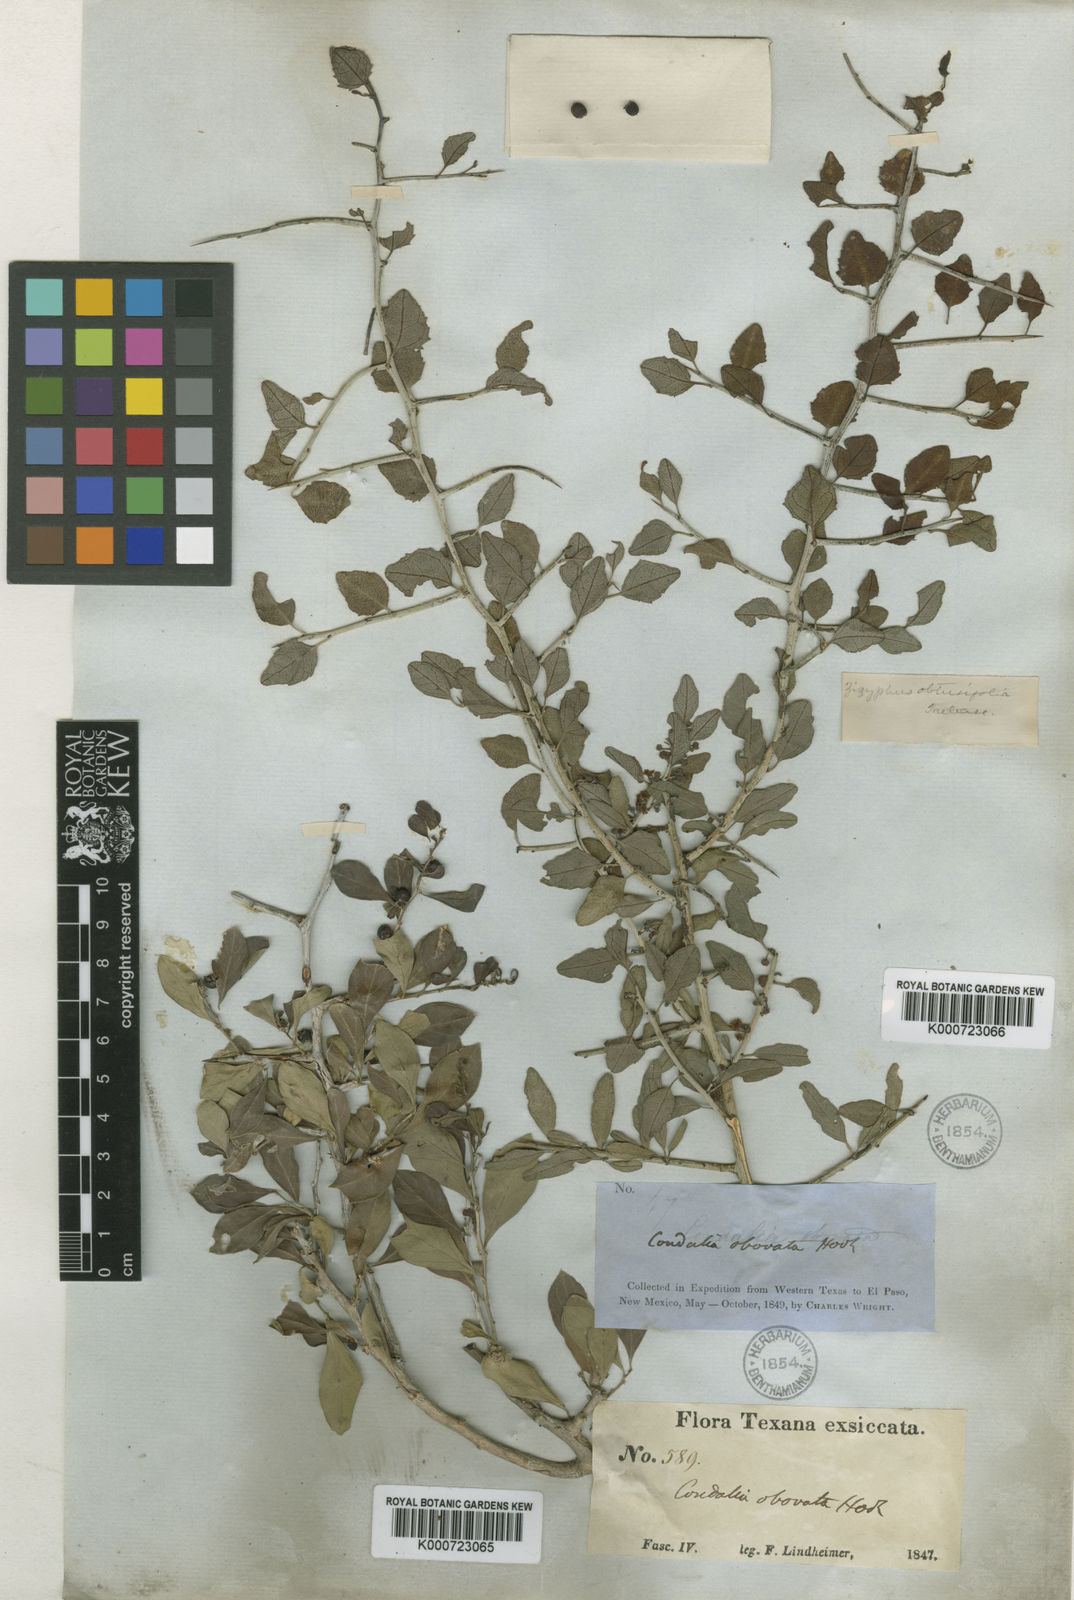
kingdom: Plantae
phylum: Tracheophyta
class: Magnoliopsida
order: Rosales
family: Rhamnaceae
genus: Sarcomphalus
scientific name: Sarcomphalus obtusifolius
